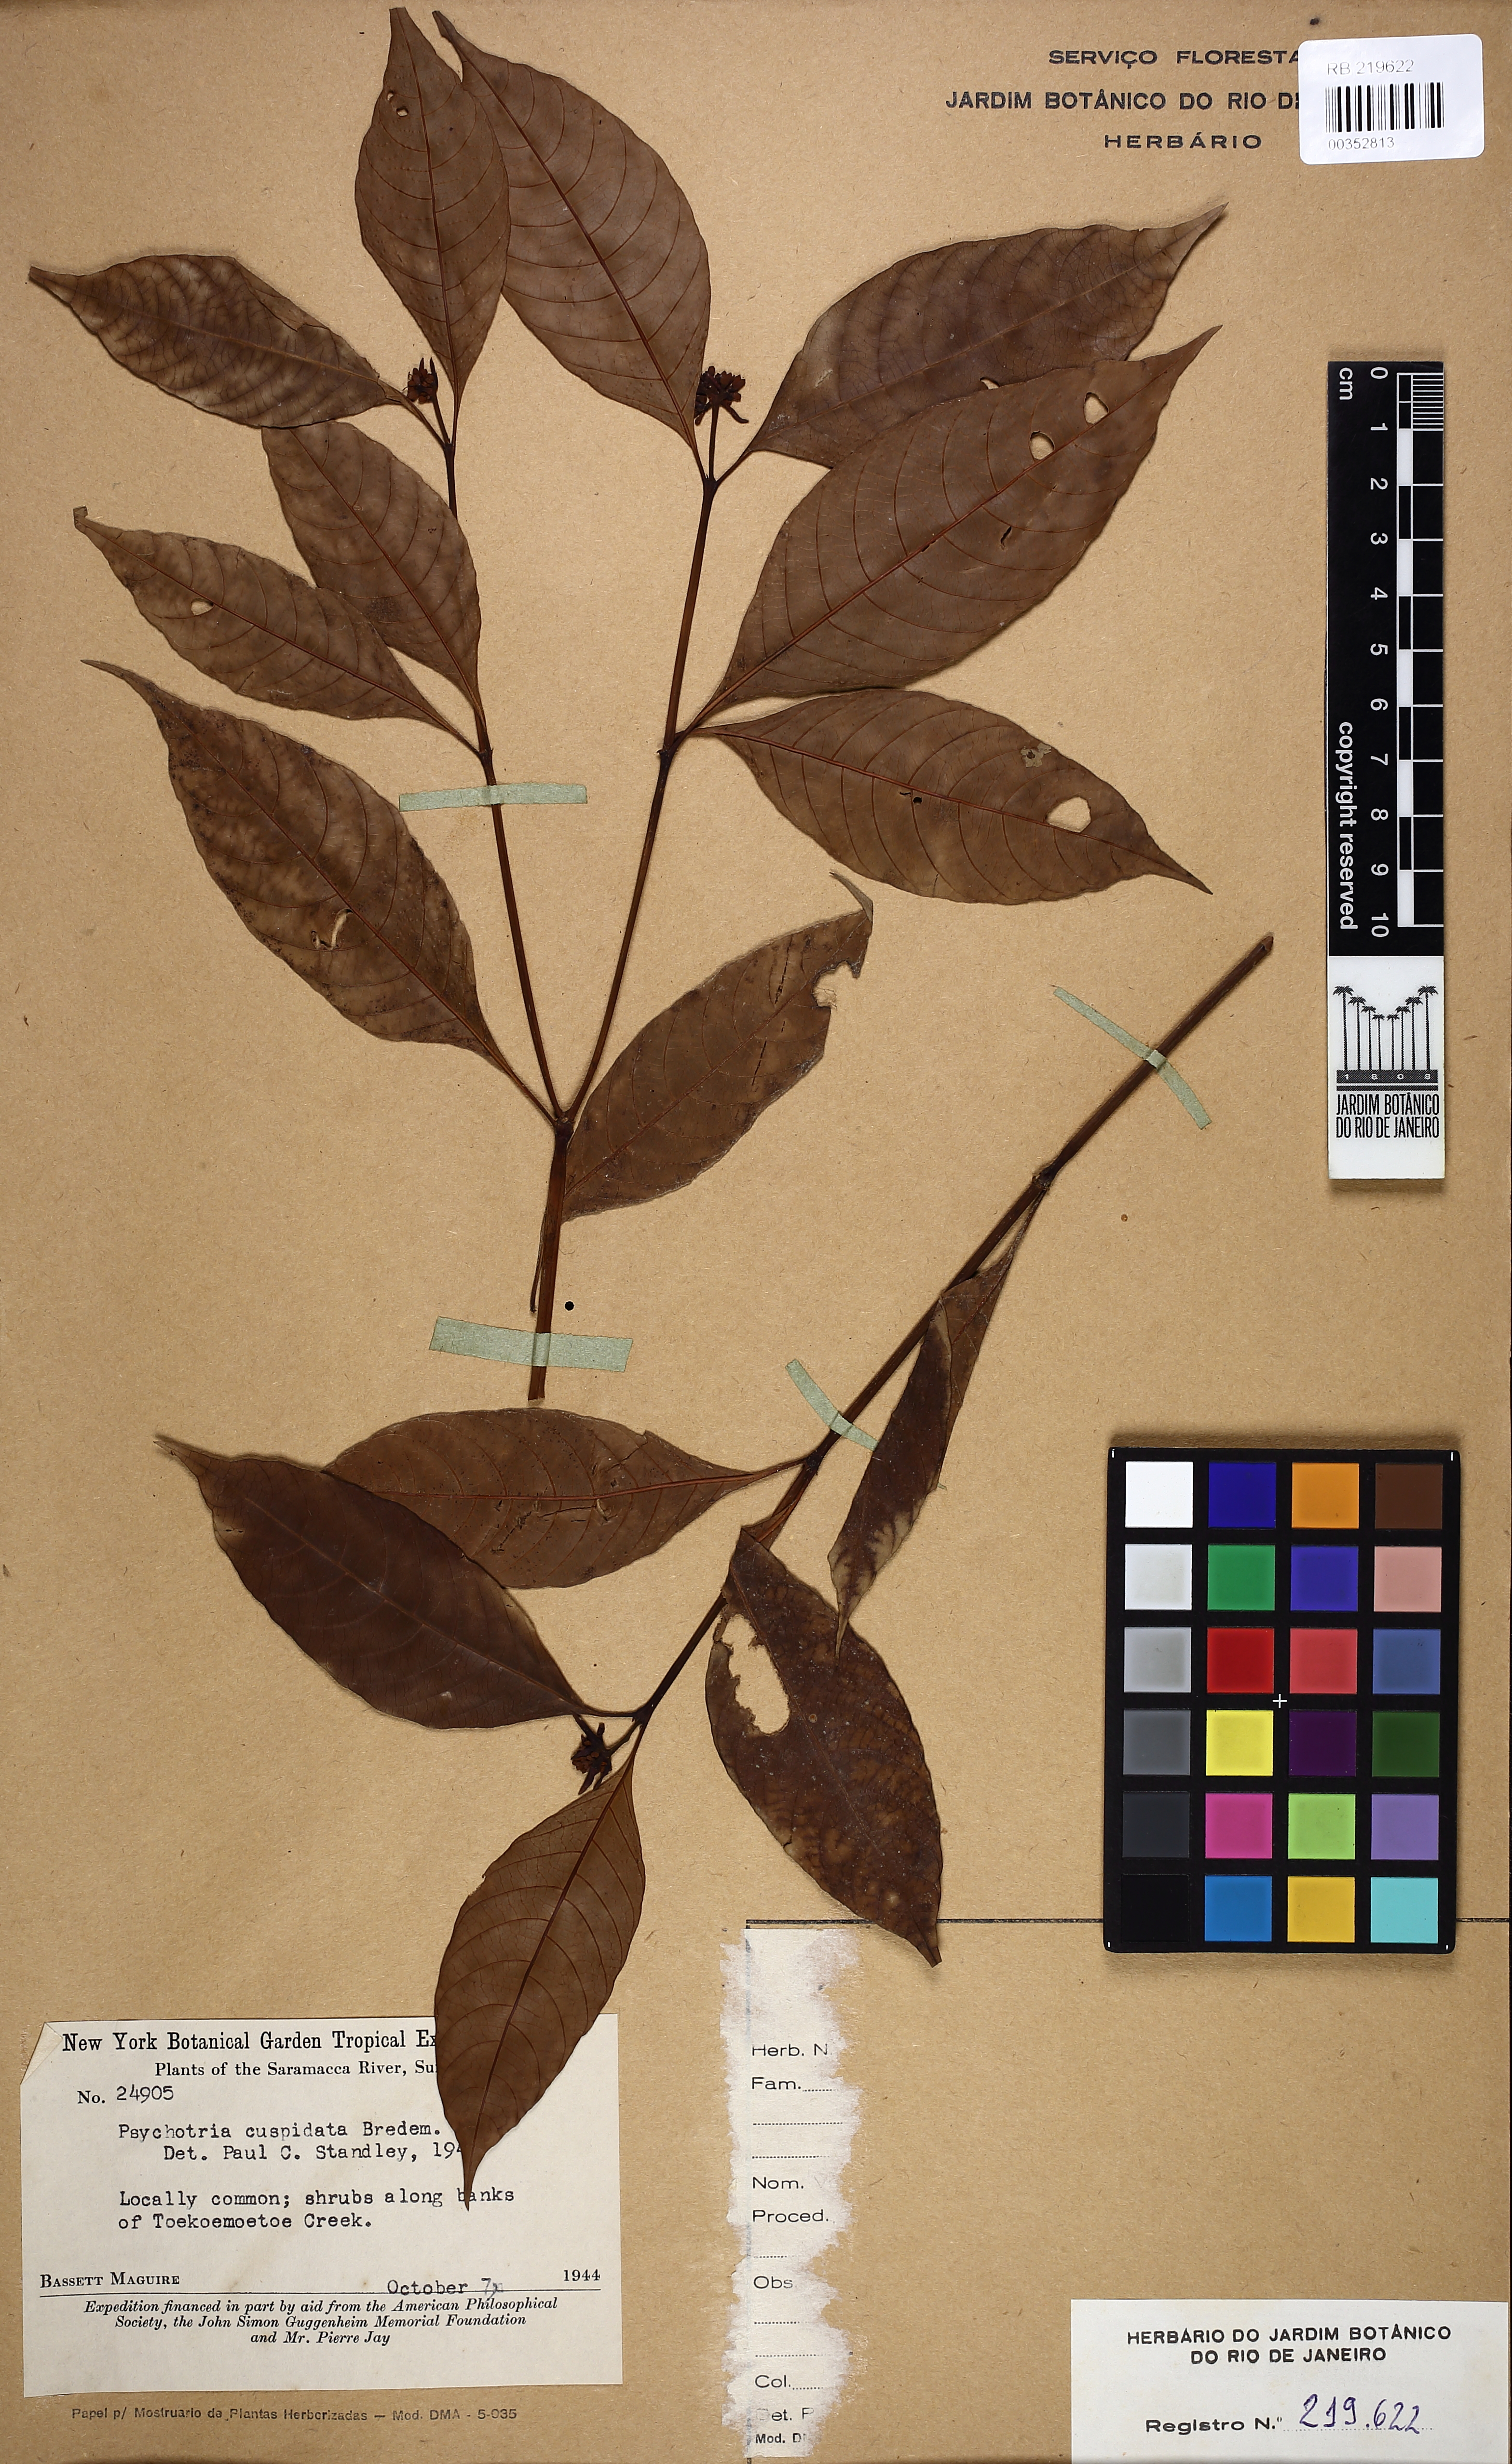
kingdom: Plantae
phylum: Tracheophyta
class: Magnoliopsida
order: Gentianales
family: Rubiaceae
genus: Palicourea
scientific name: Palicourea cuspidata
